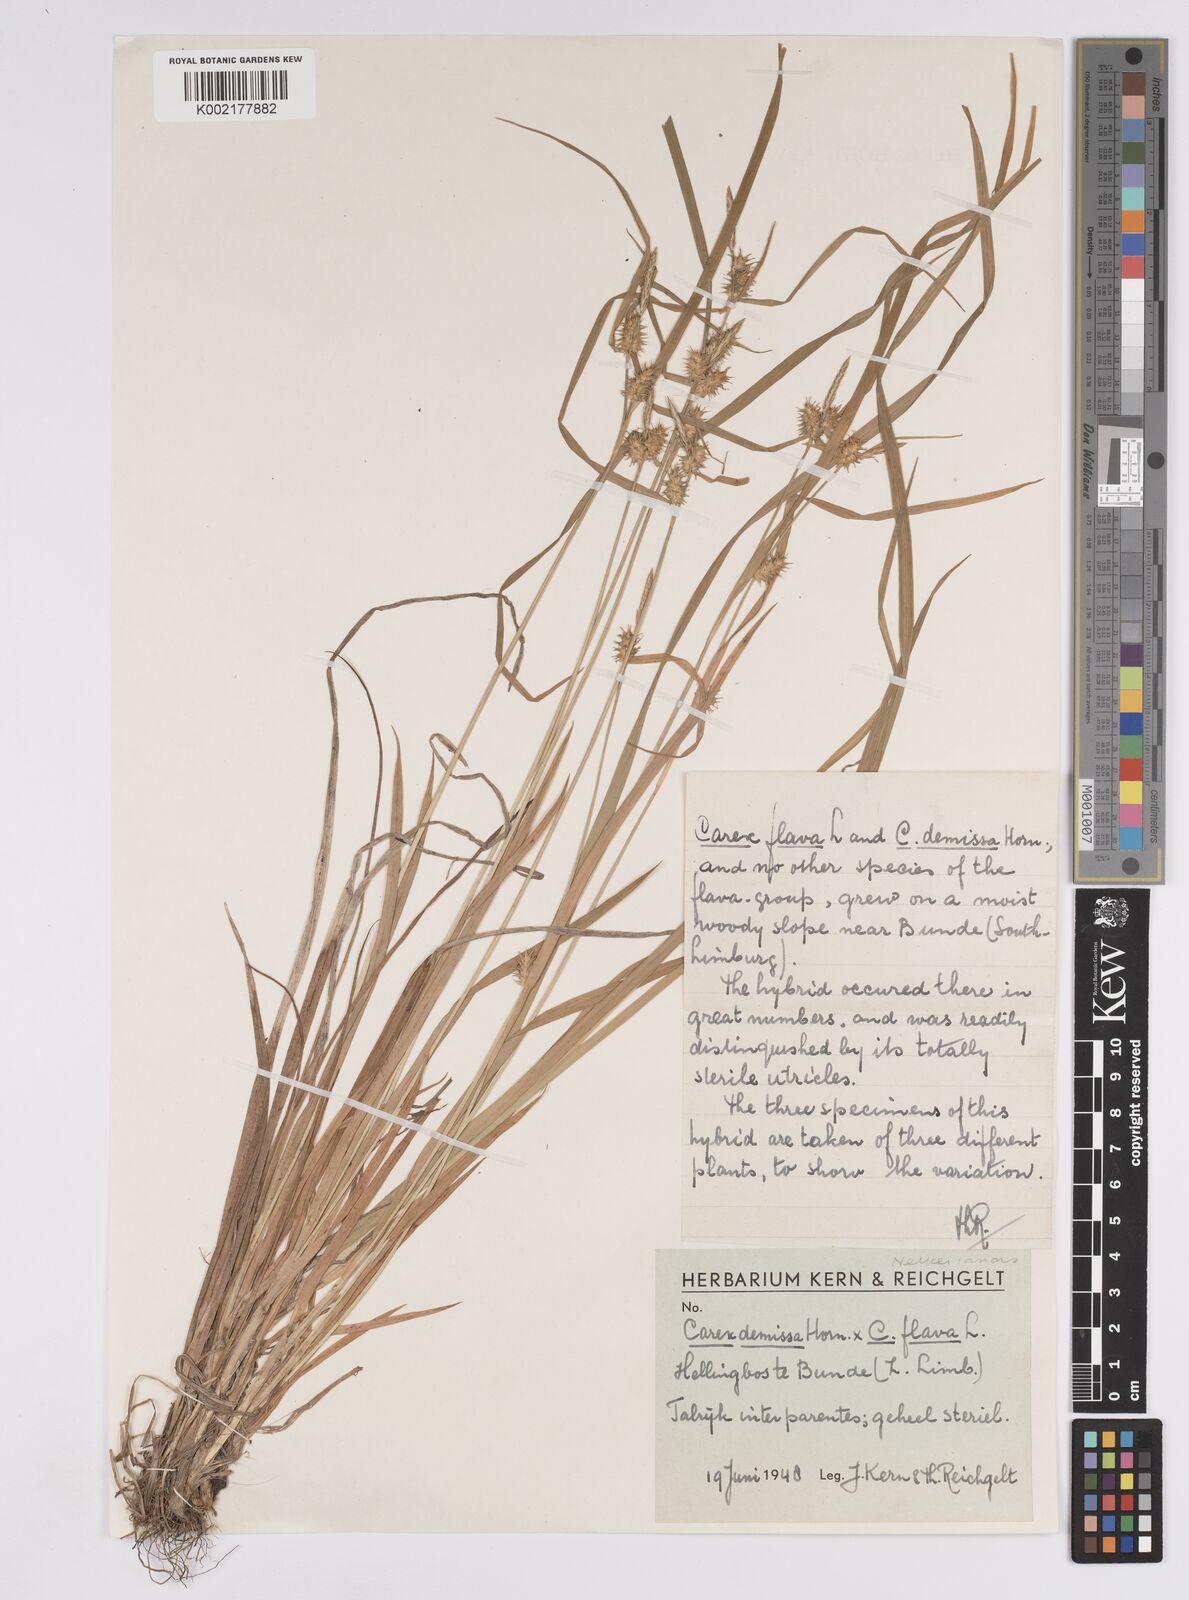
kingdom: Plantae
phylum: Tracheophyta
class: Liliopsida
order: Poales
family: Cyperaceae
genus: Carex
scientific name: Carex flava
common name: Large yellow-sedge
